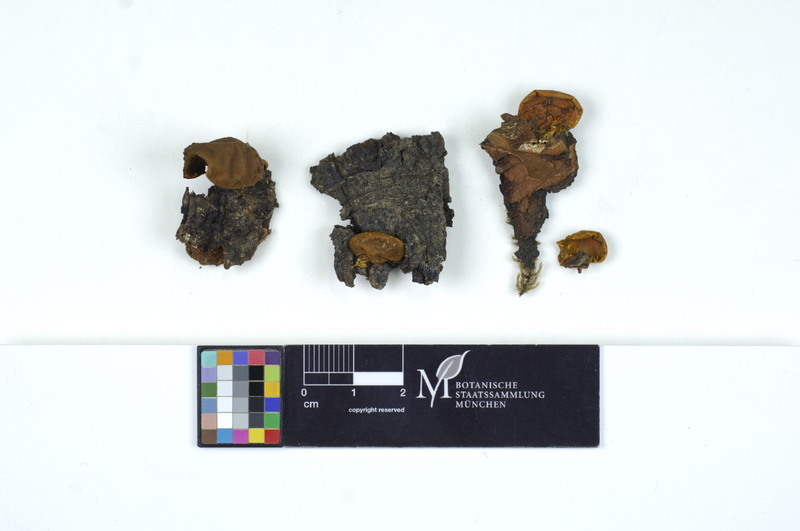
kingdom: Plantae
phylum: Tracheophyta
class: Magnoliopsida
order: Sapindales
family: Sapindaceae
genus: Aesculus
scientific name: Aesculus
